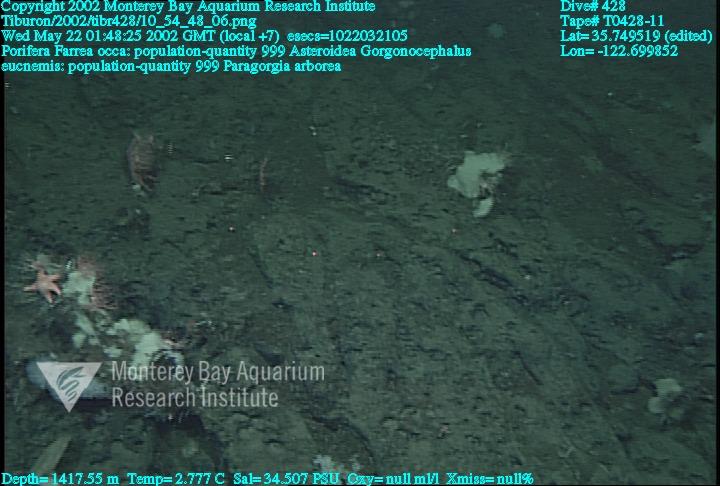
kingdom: Animalia
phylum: Porifera
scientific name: Porifera
